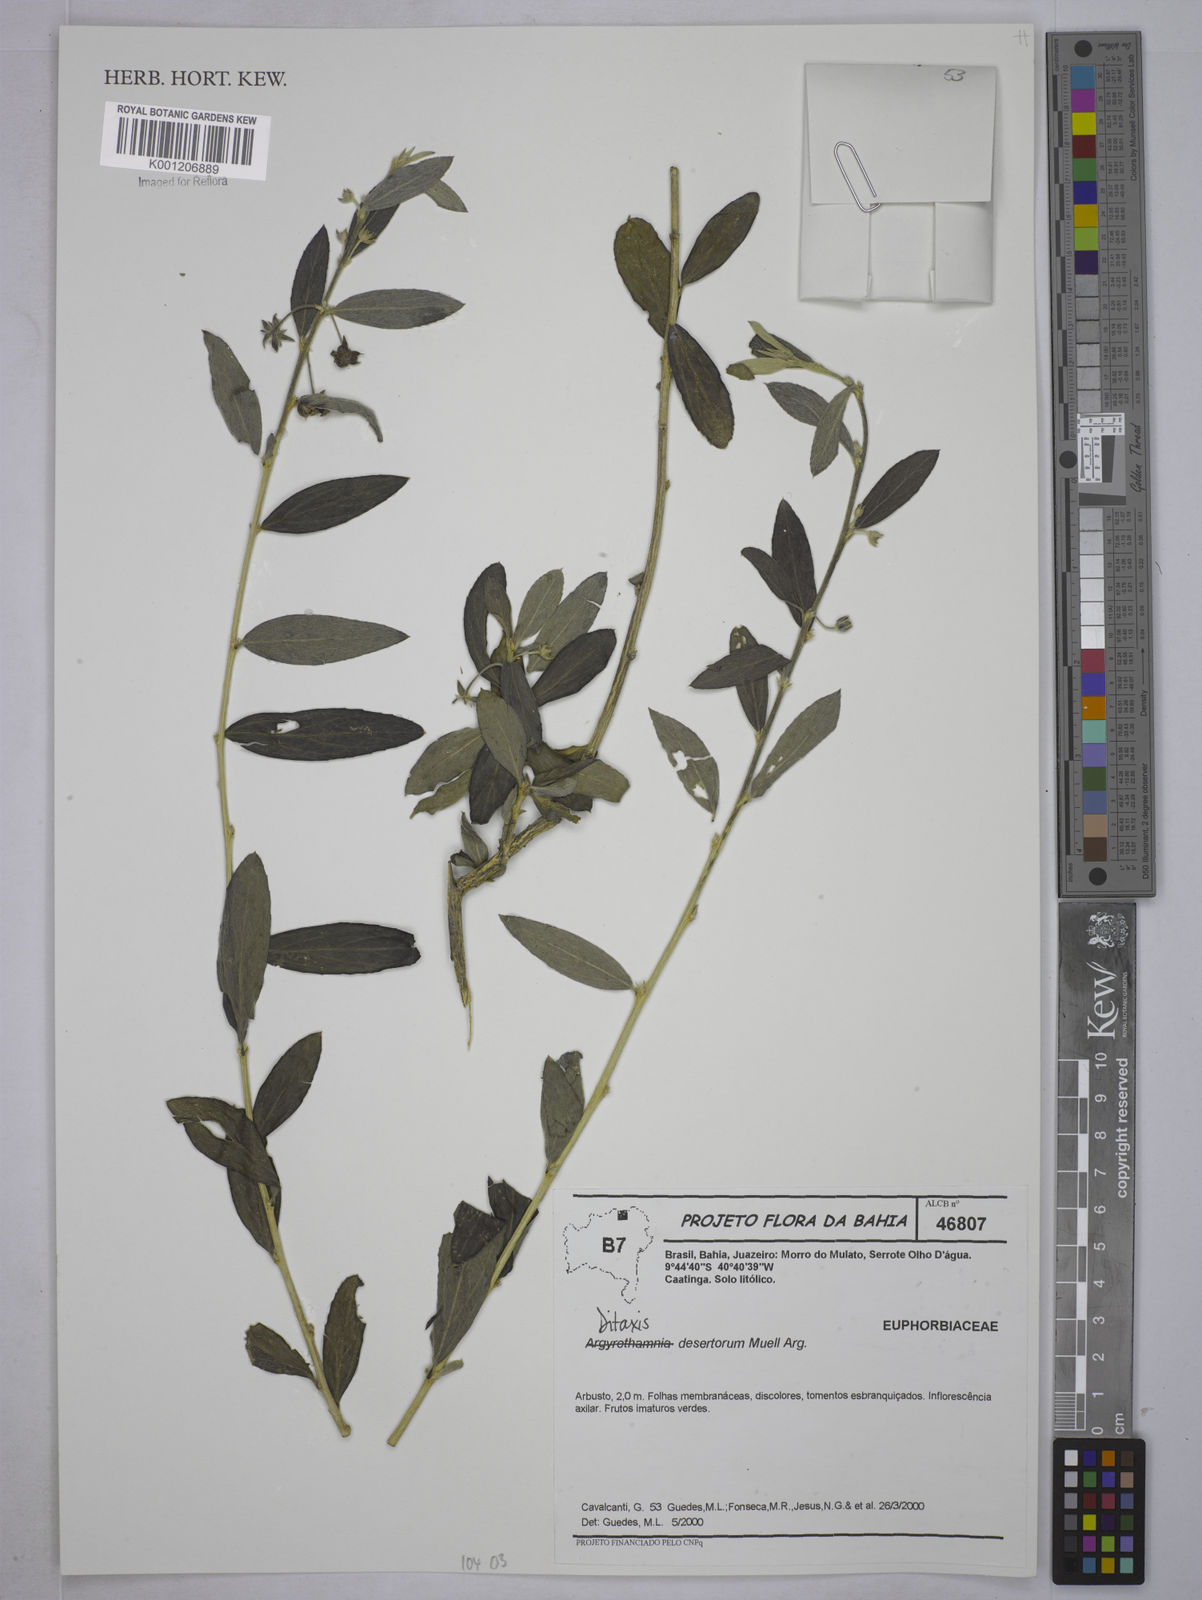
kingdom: Plantae
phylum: Tracheophyta
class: Magnoliopsida
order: Malpighiales
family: Euphorbiaceae
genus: Ditaxis
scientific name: Ditaxis
